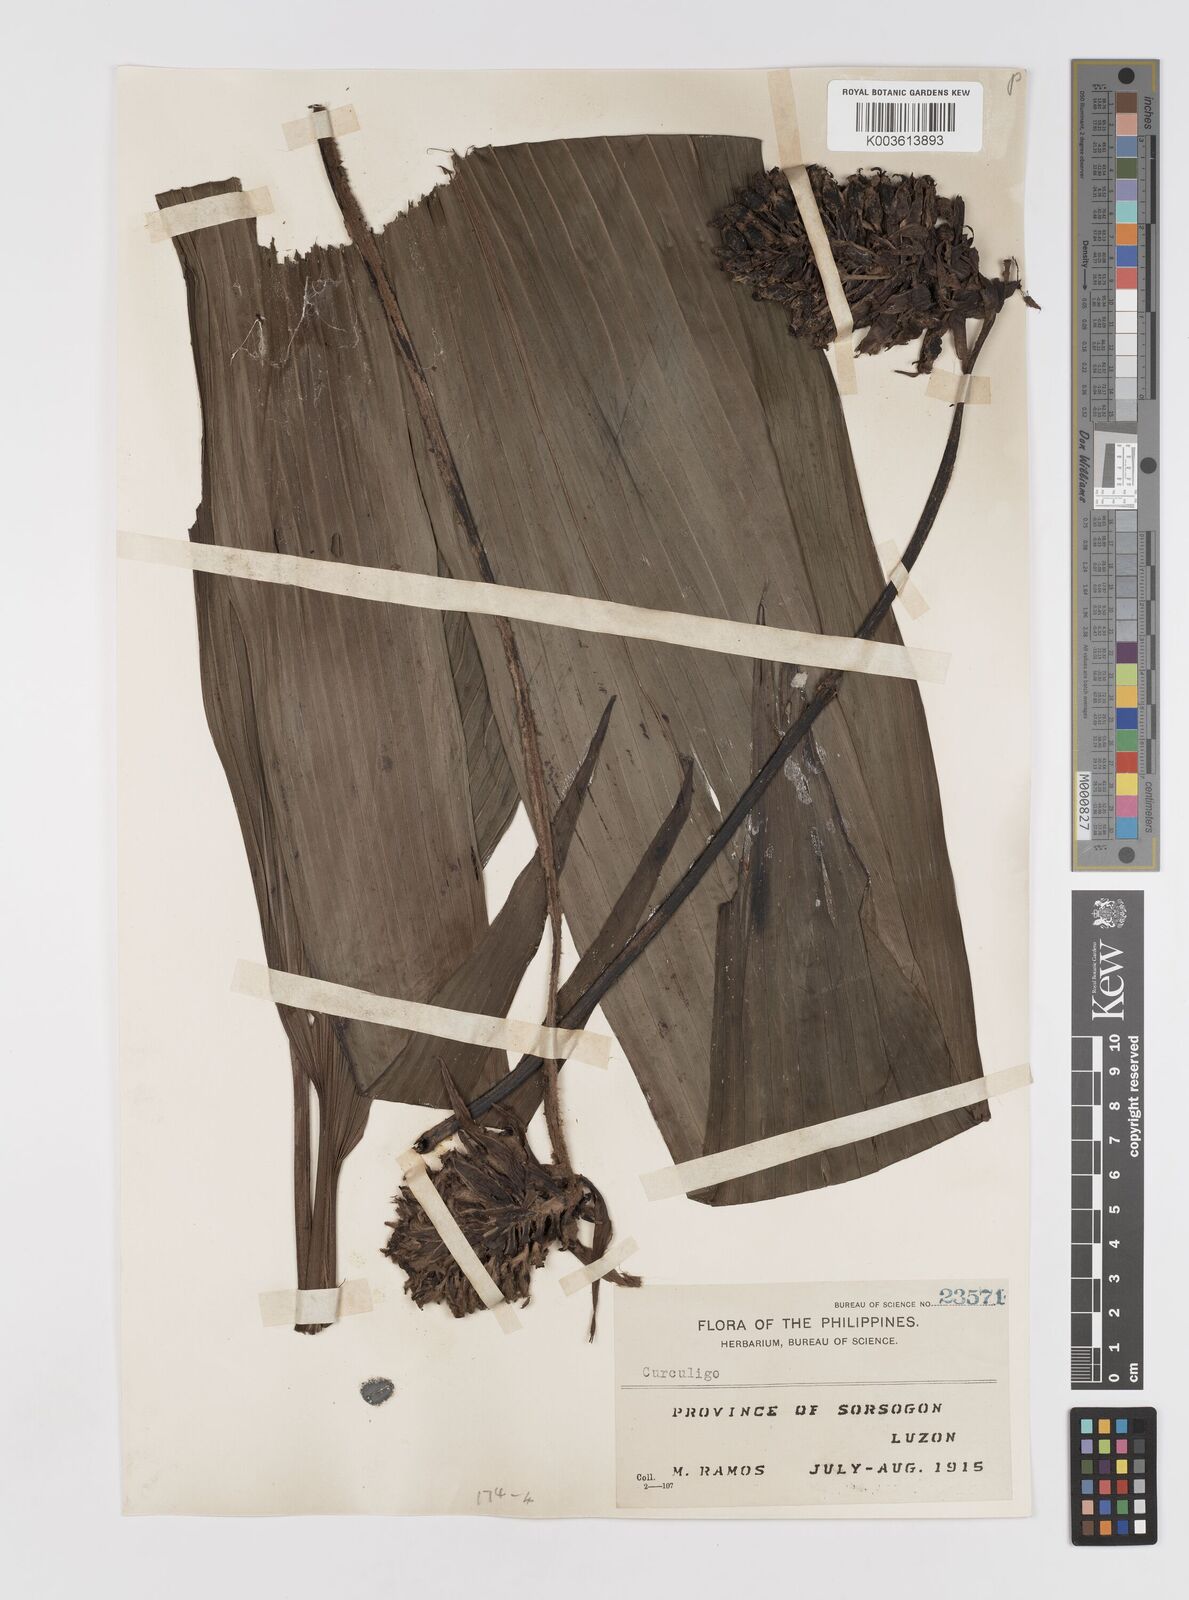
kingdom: Plantae
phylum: Tracheophyta
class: Liliopsida
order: Asparagales
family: Hypoxidaceae
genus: Curculigo
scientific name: Curculigo capitulata
